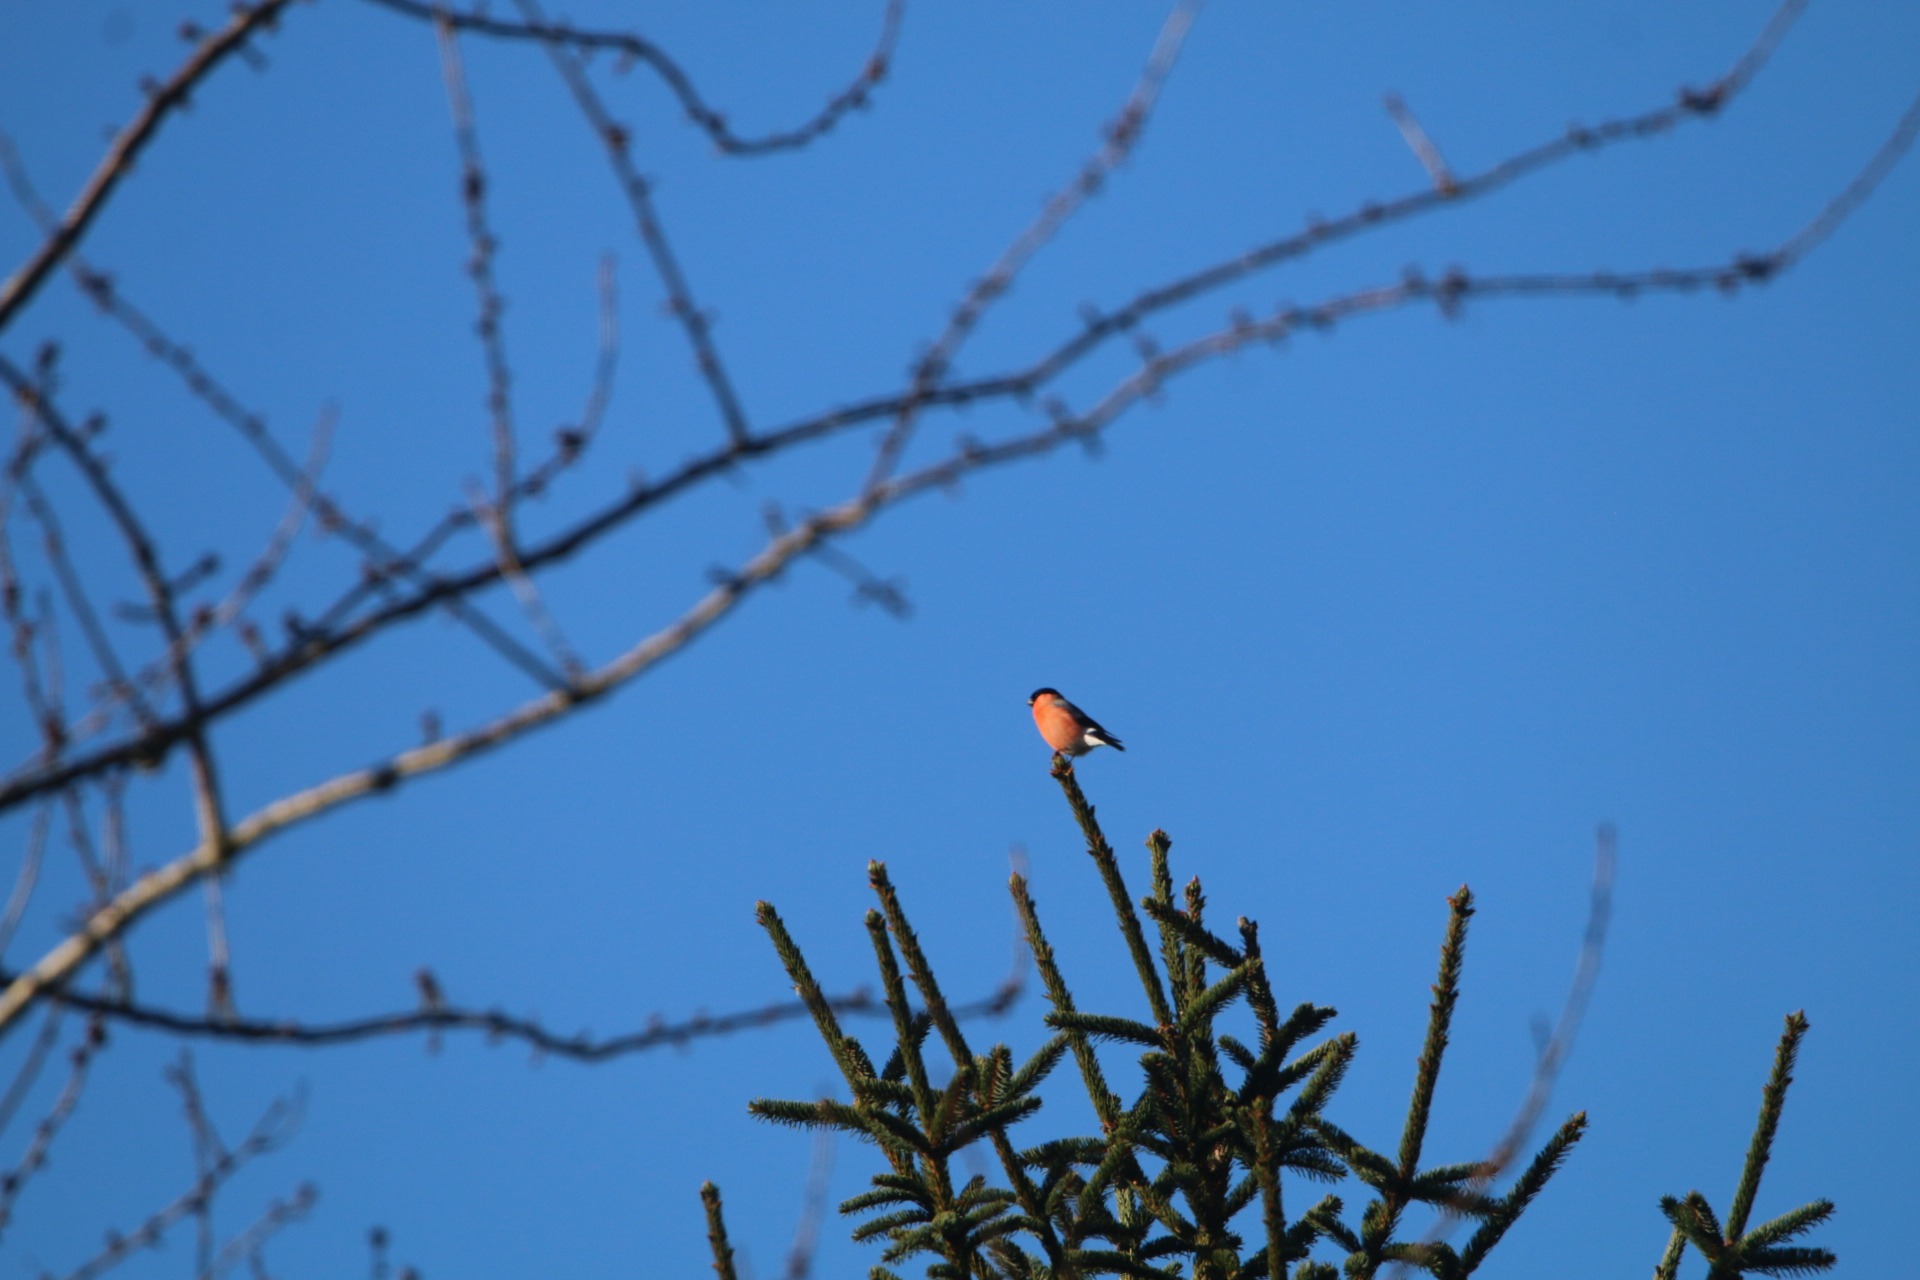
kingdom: Animalia
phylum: Chordata
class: Aves
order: Passeriformes
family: Fringillidae
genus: Pyrrhula
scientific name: Pyrrhula pyrrhula
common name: Dompap
